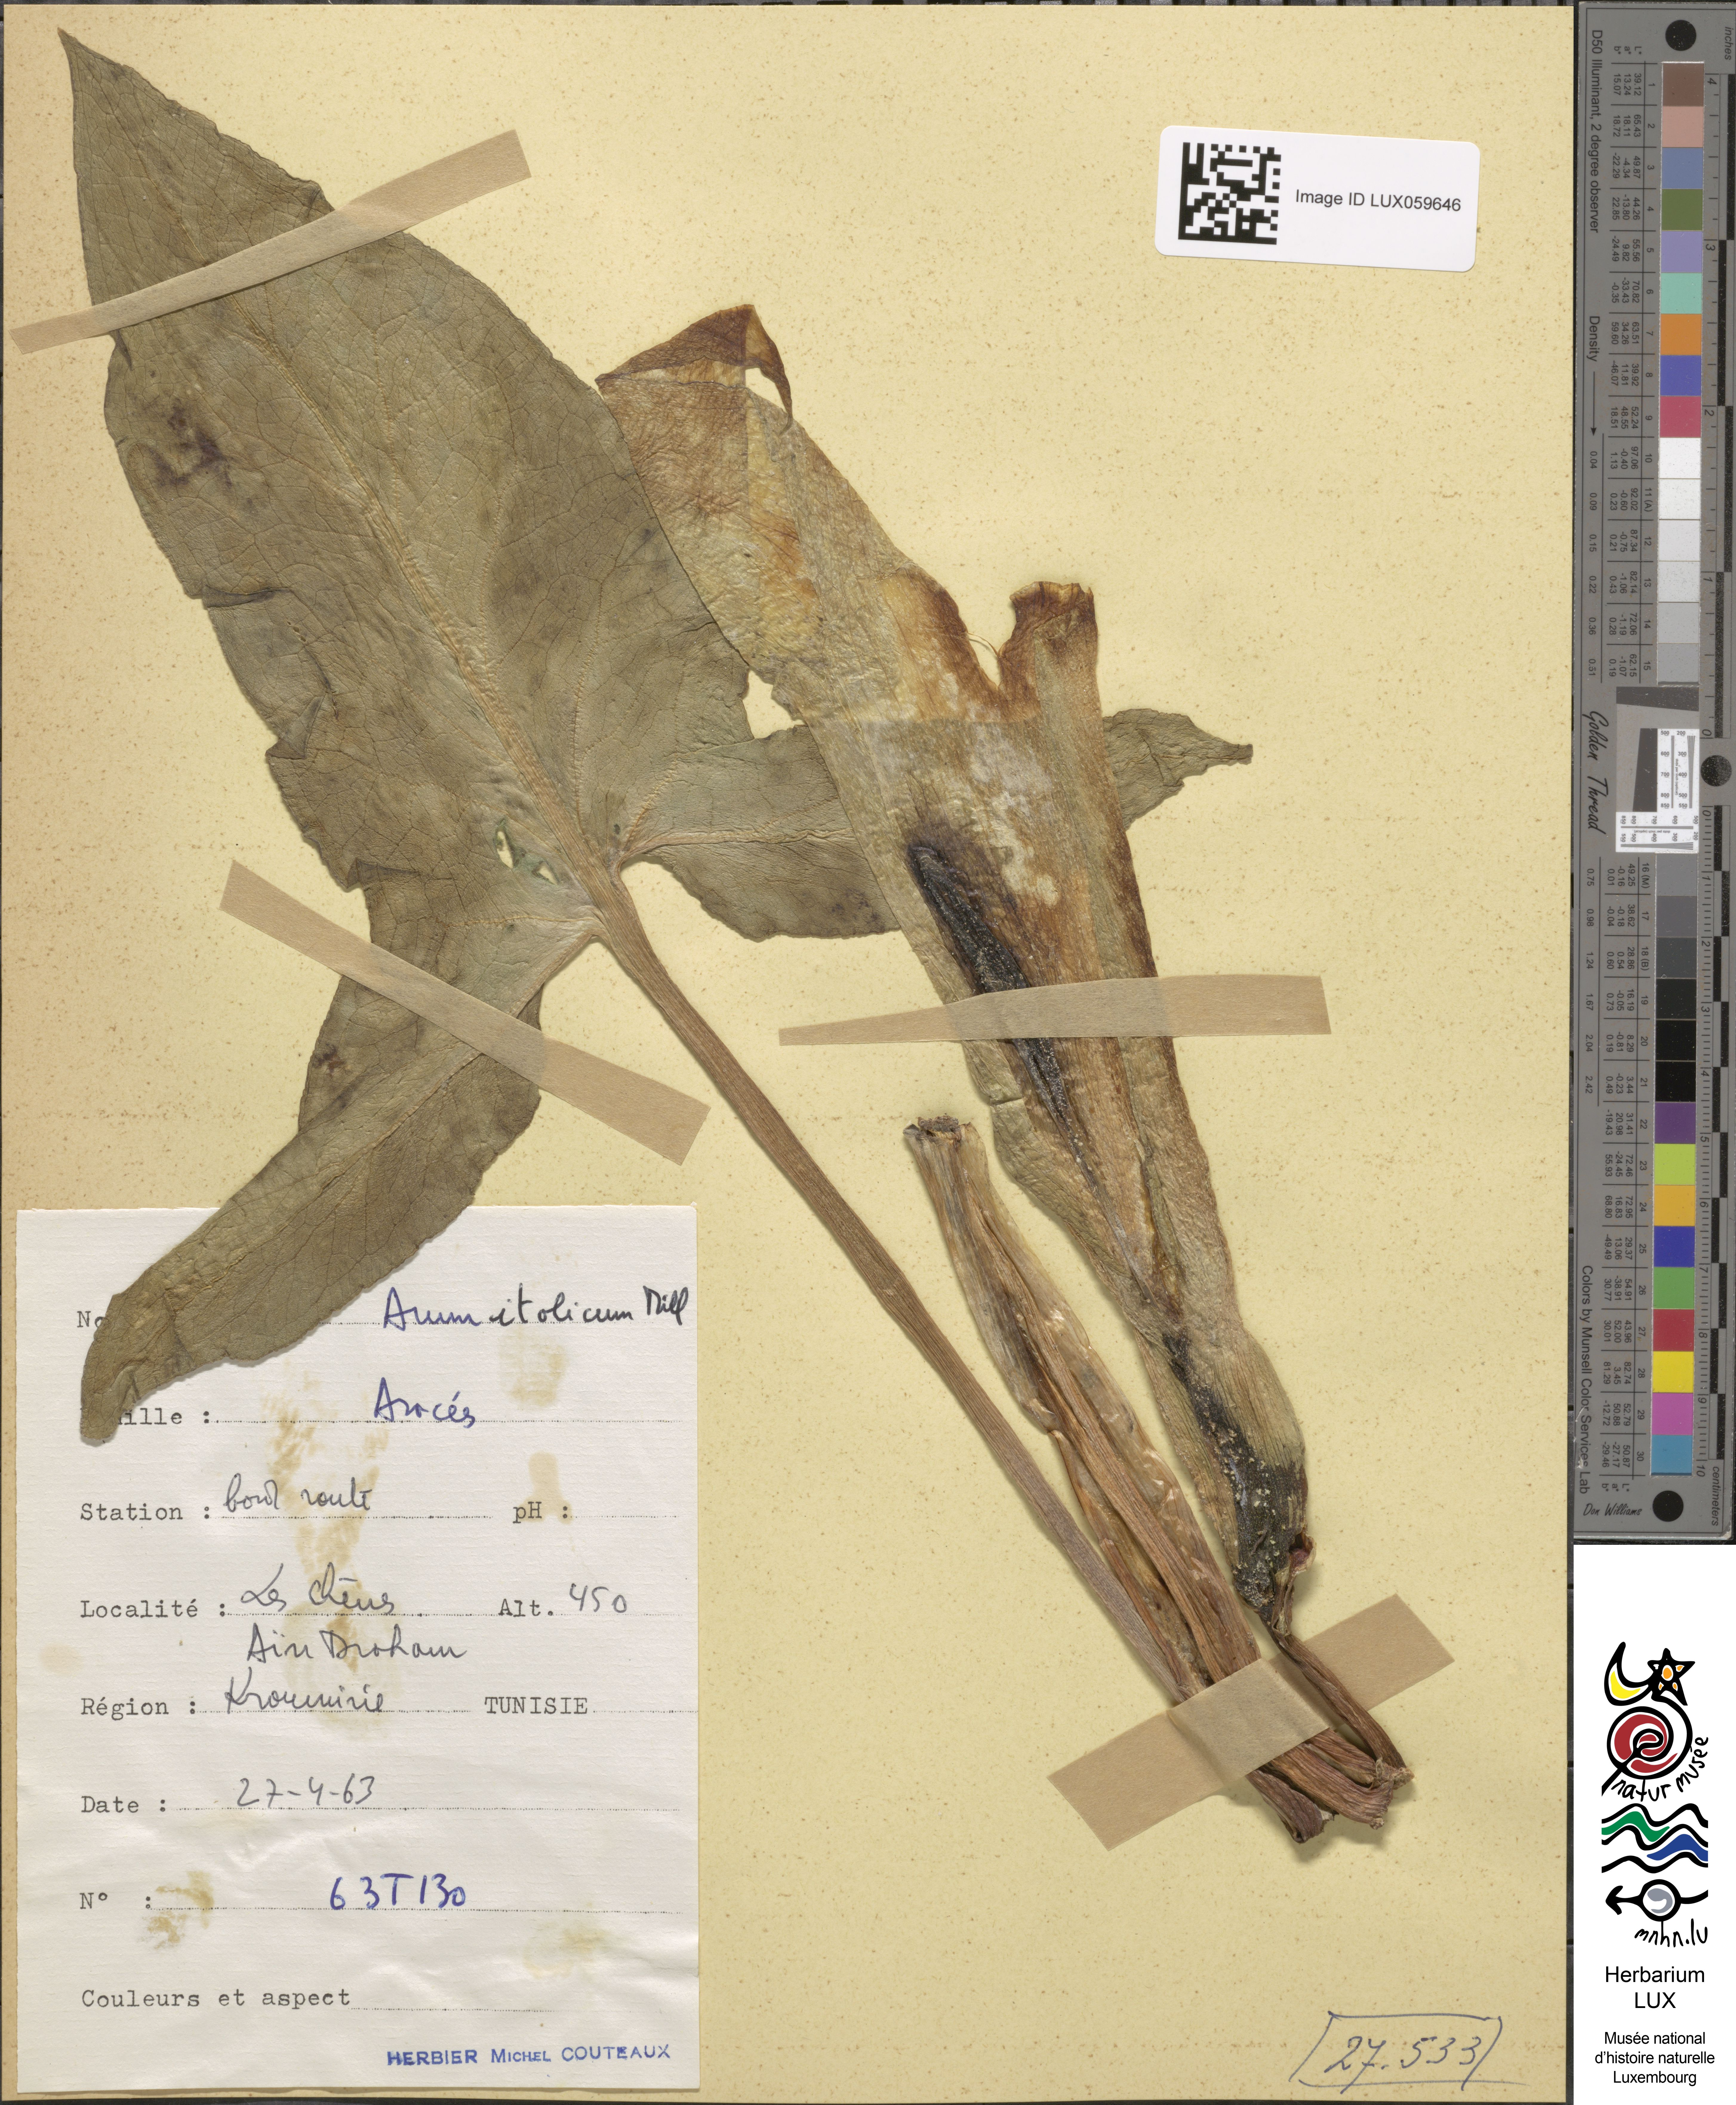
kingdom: Plantae
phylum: Tracheophyta
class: Liliopsida
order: Alismatales
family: Araceae
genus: Arum
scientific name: Arum italicum
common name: Italian lords-and-ladies
